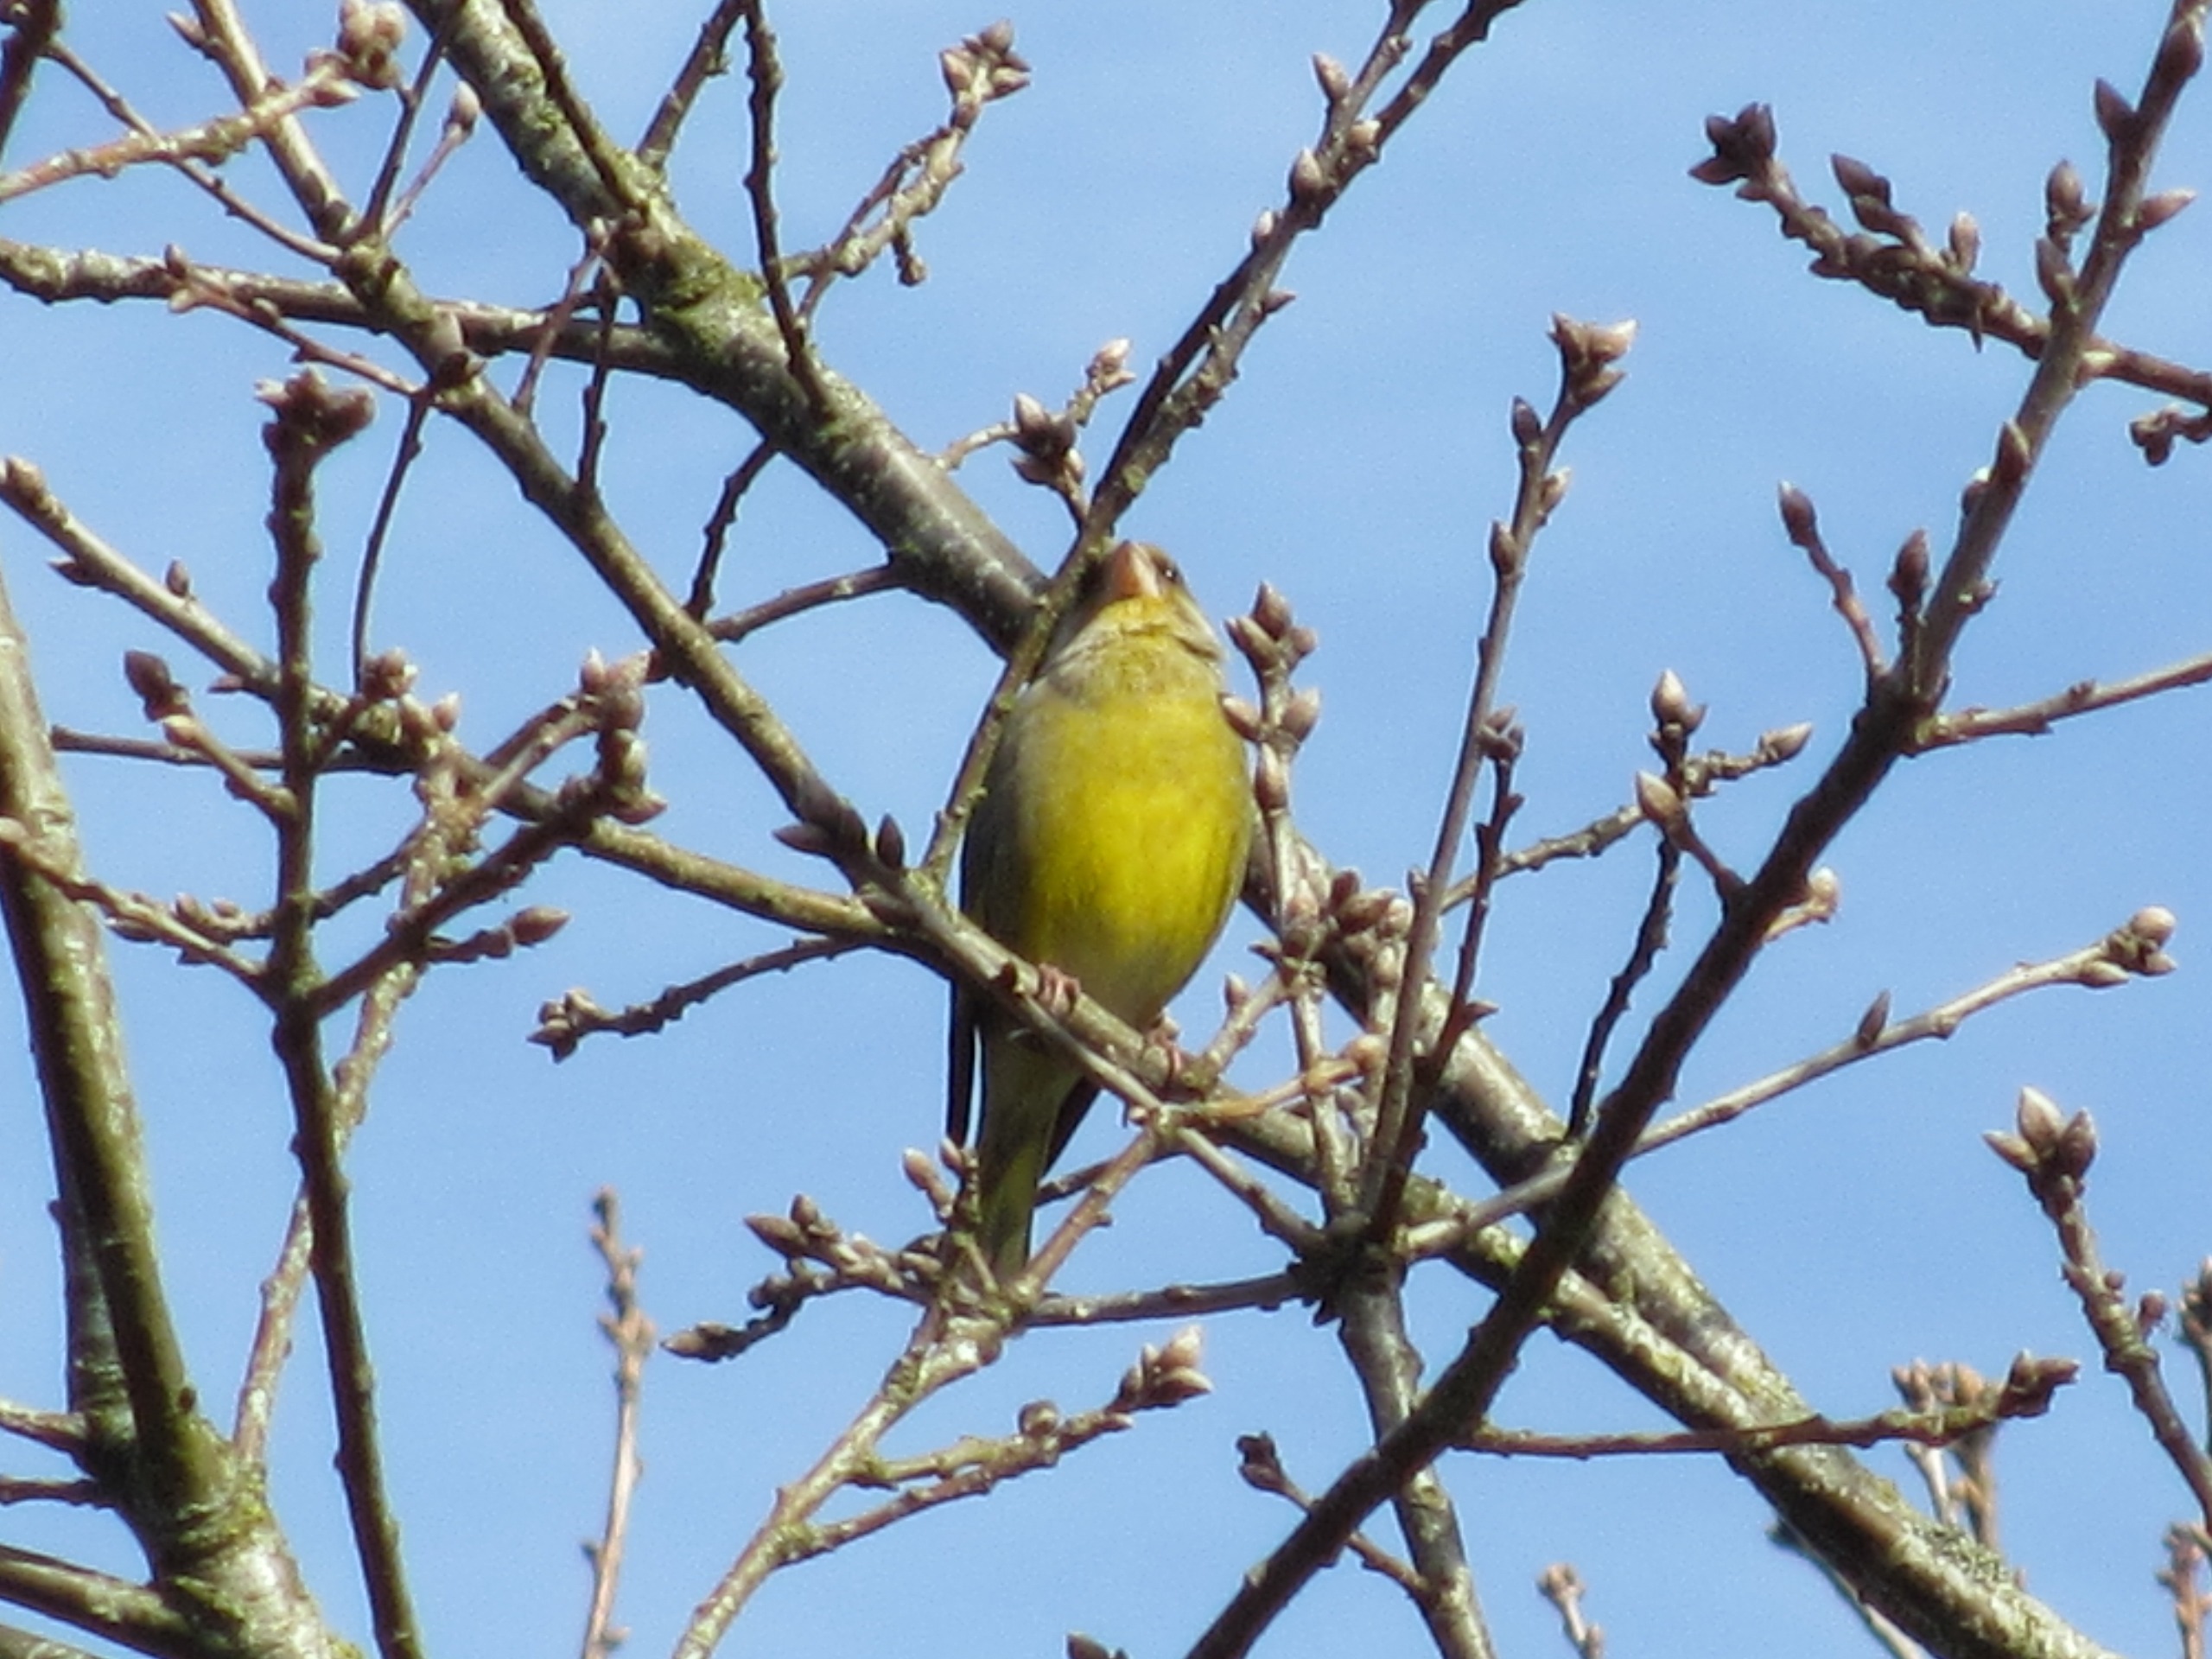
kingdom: Plantae
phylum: Tracheophyta
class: Liliopsida
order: Poales
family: Poaceae
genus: Chloris
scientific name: Chloris chloris
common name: Grønirisk
